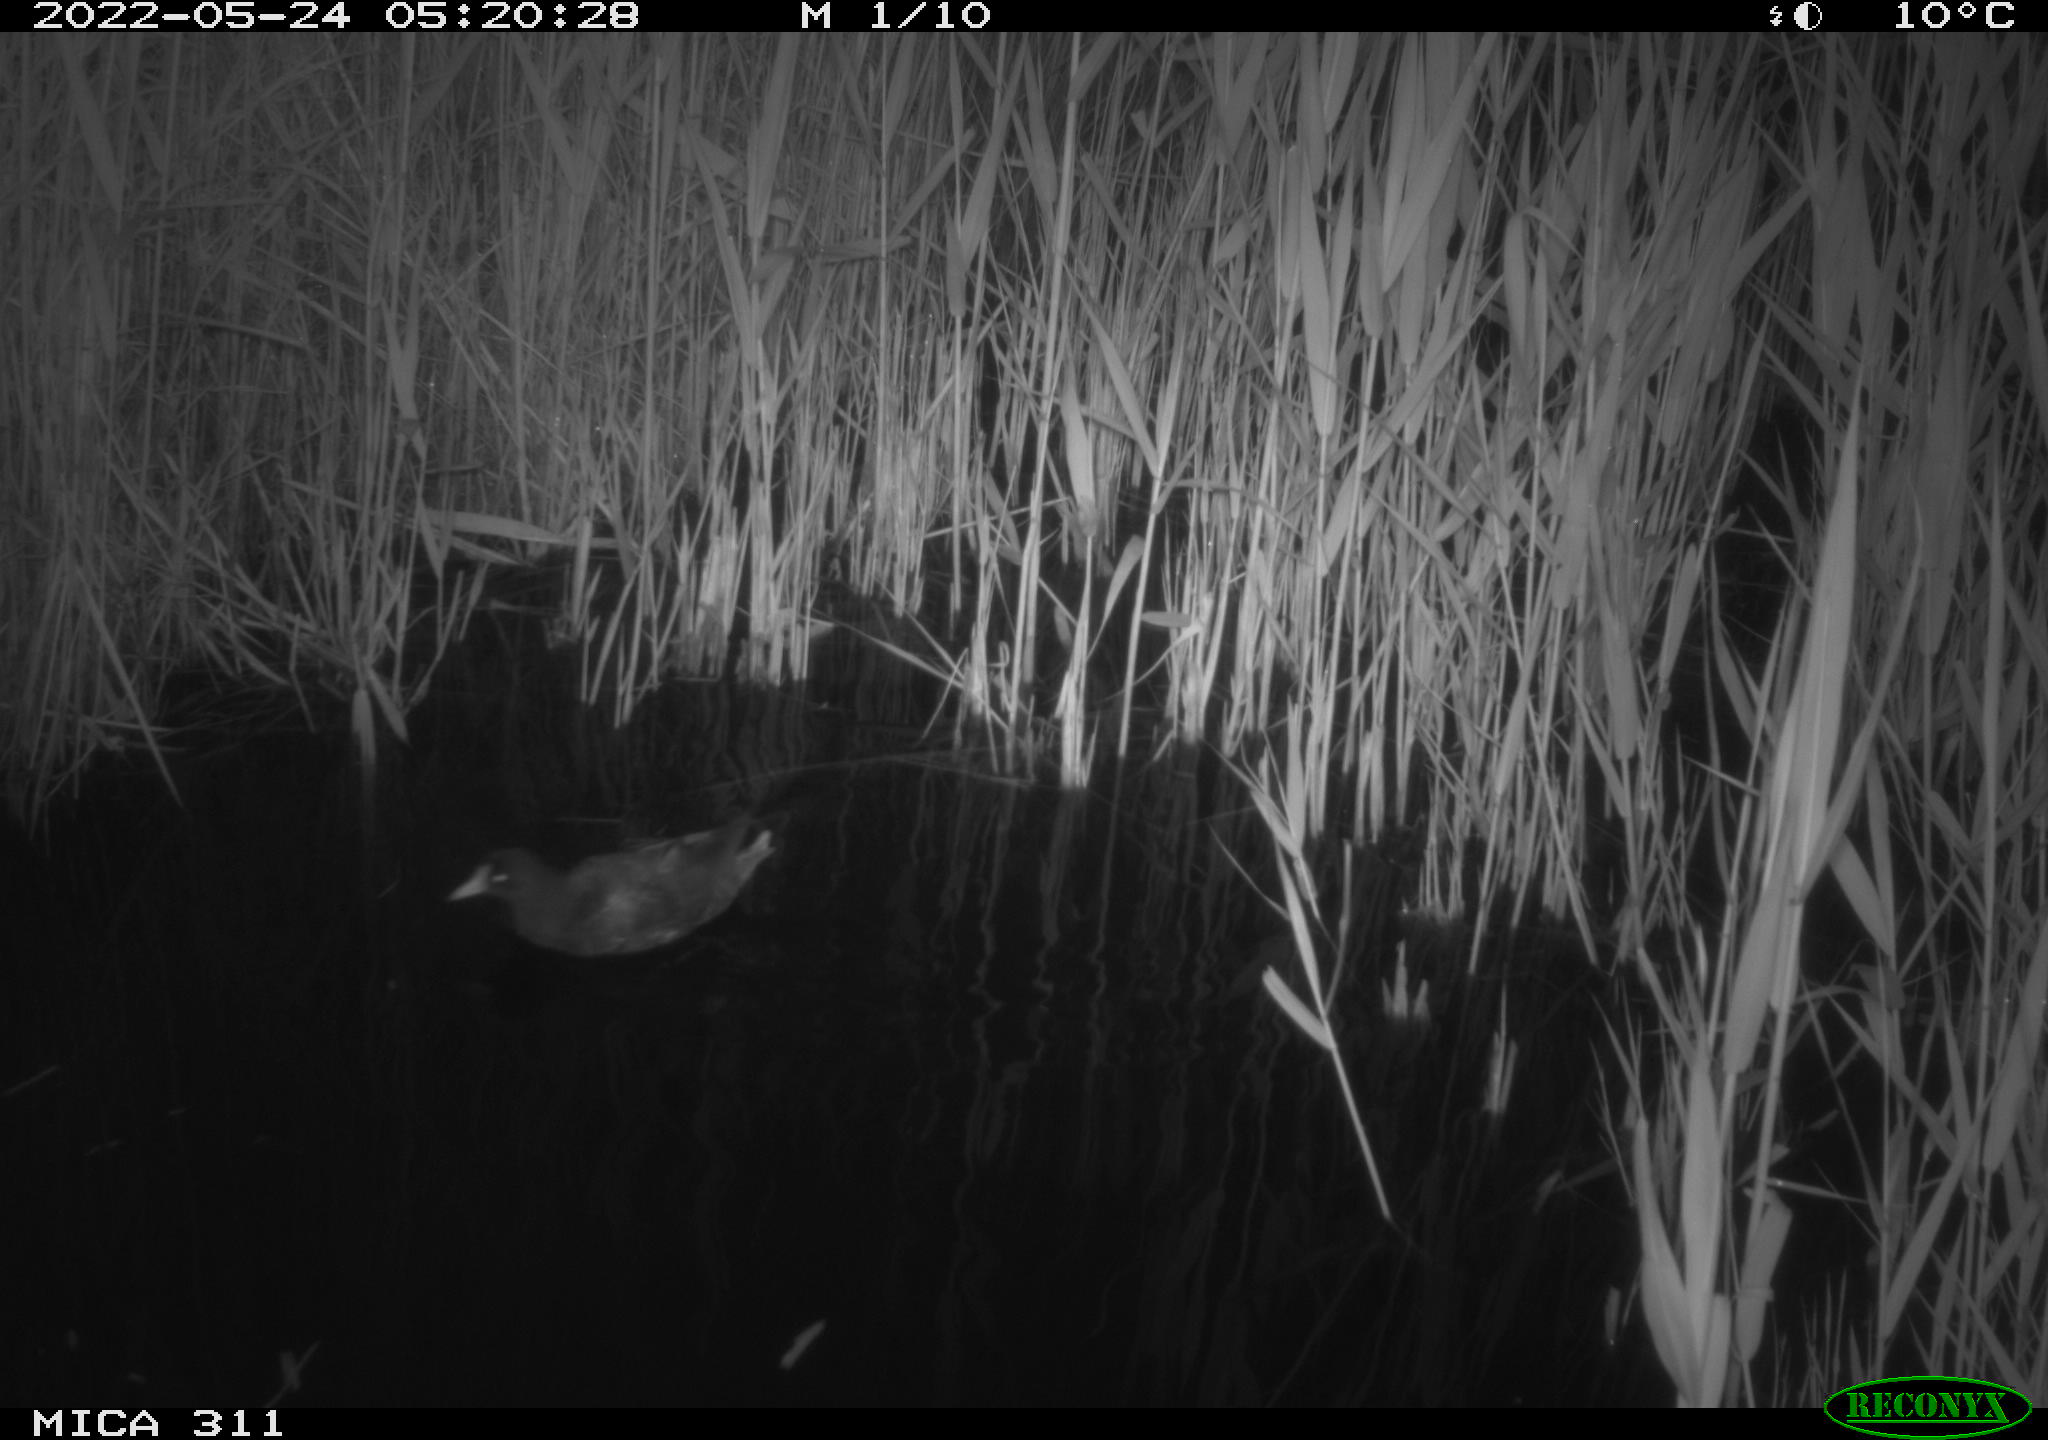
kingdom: Animalia
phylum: Chordata
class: Aves
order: Gruiformes
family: Rallidae
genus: Gallinula
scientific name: Gallinula chloropus
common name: Common moorhen
